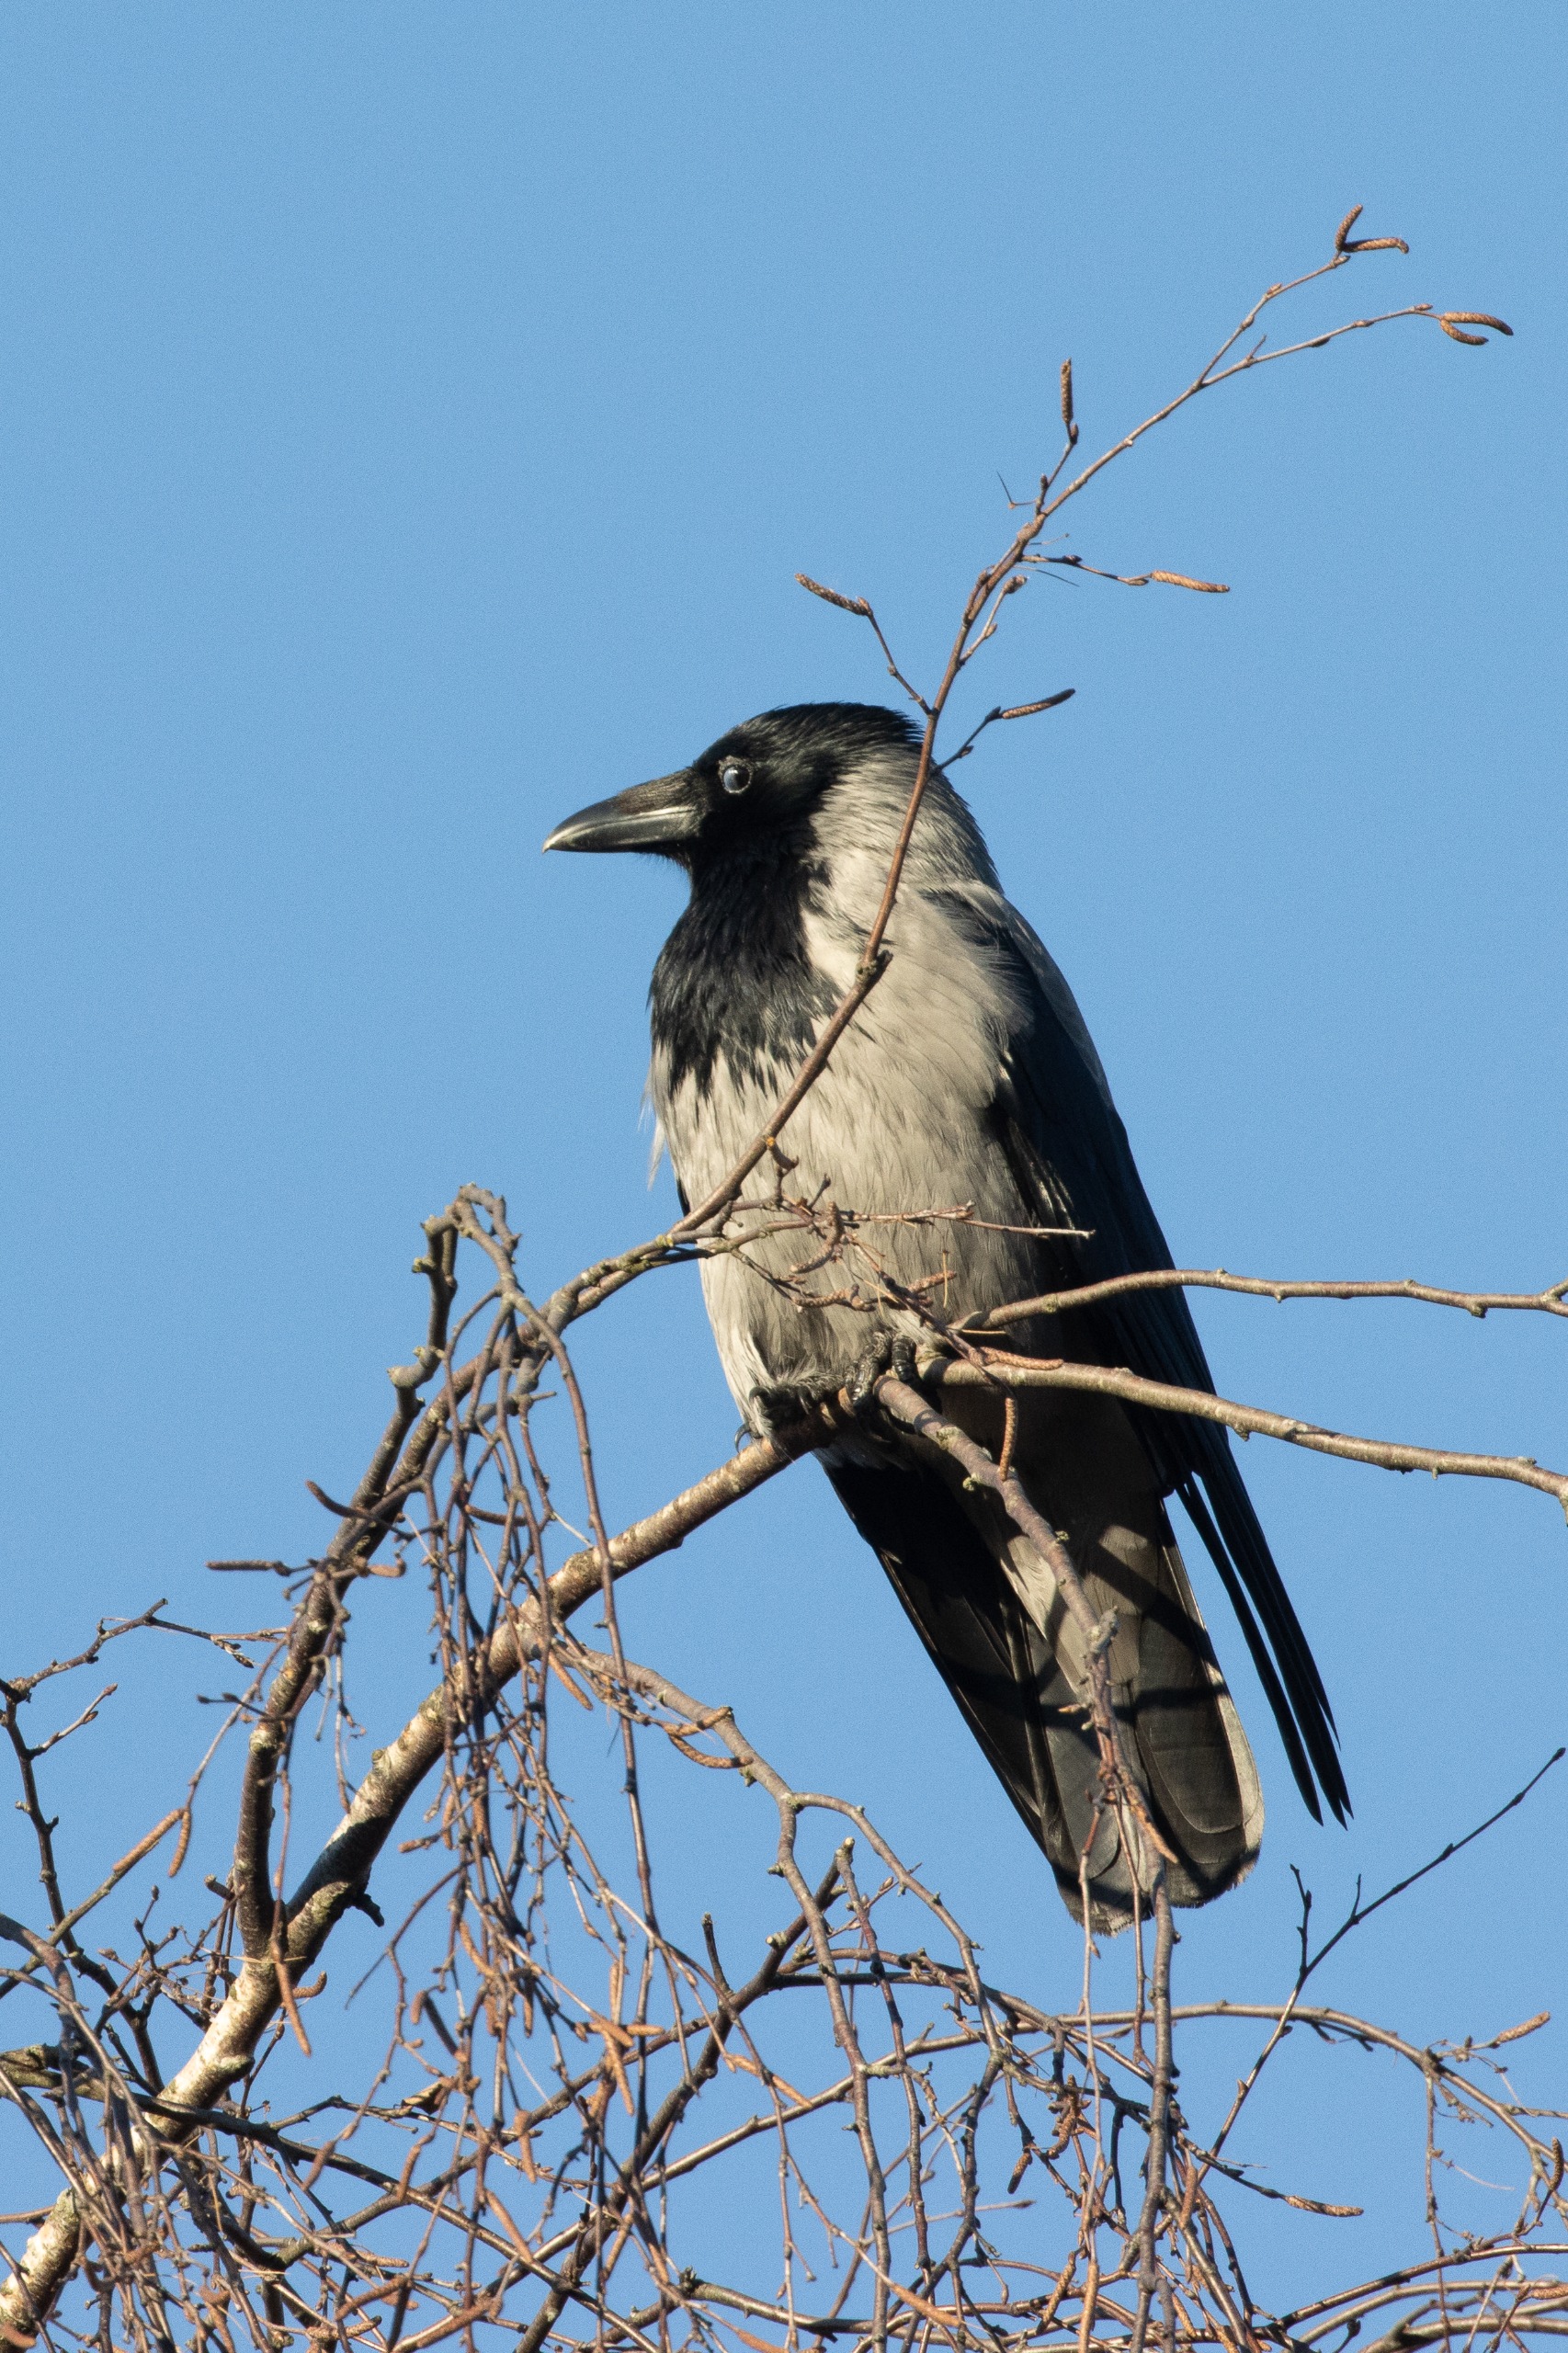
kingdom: Animalia
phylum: Chordata
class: Aves
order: Passeriformes
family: Corvidae
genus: Corvus
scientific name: Corvus cornix
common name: Gråkrage
